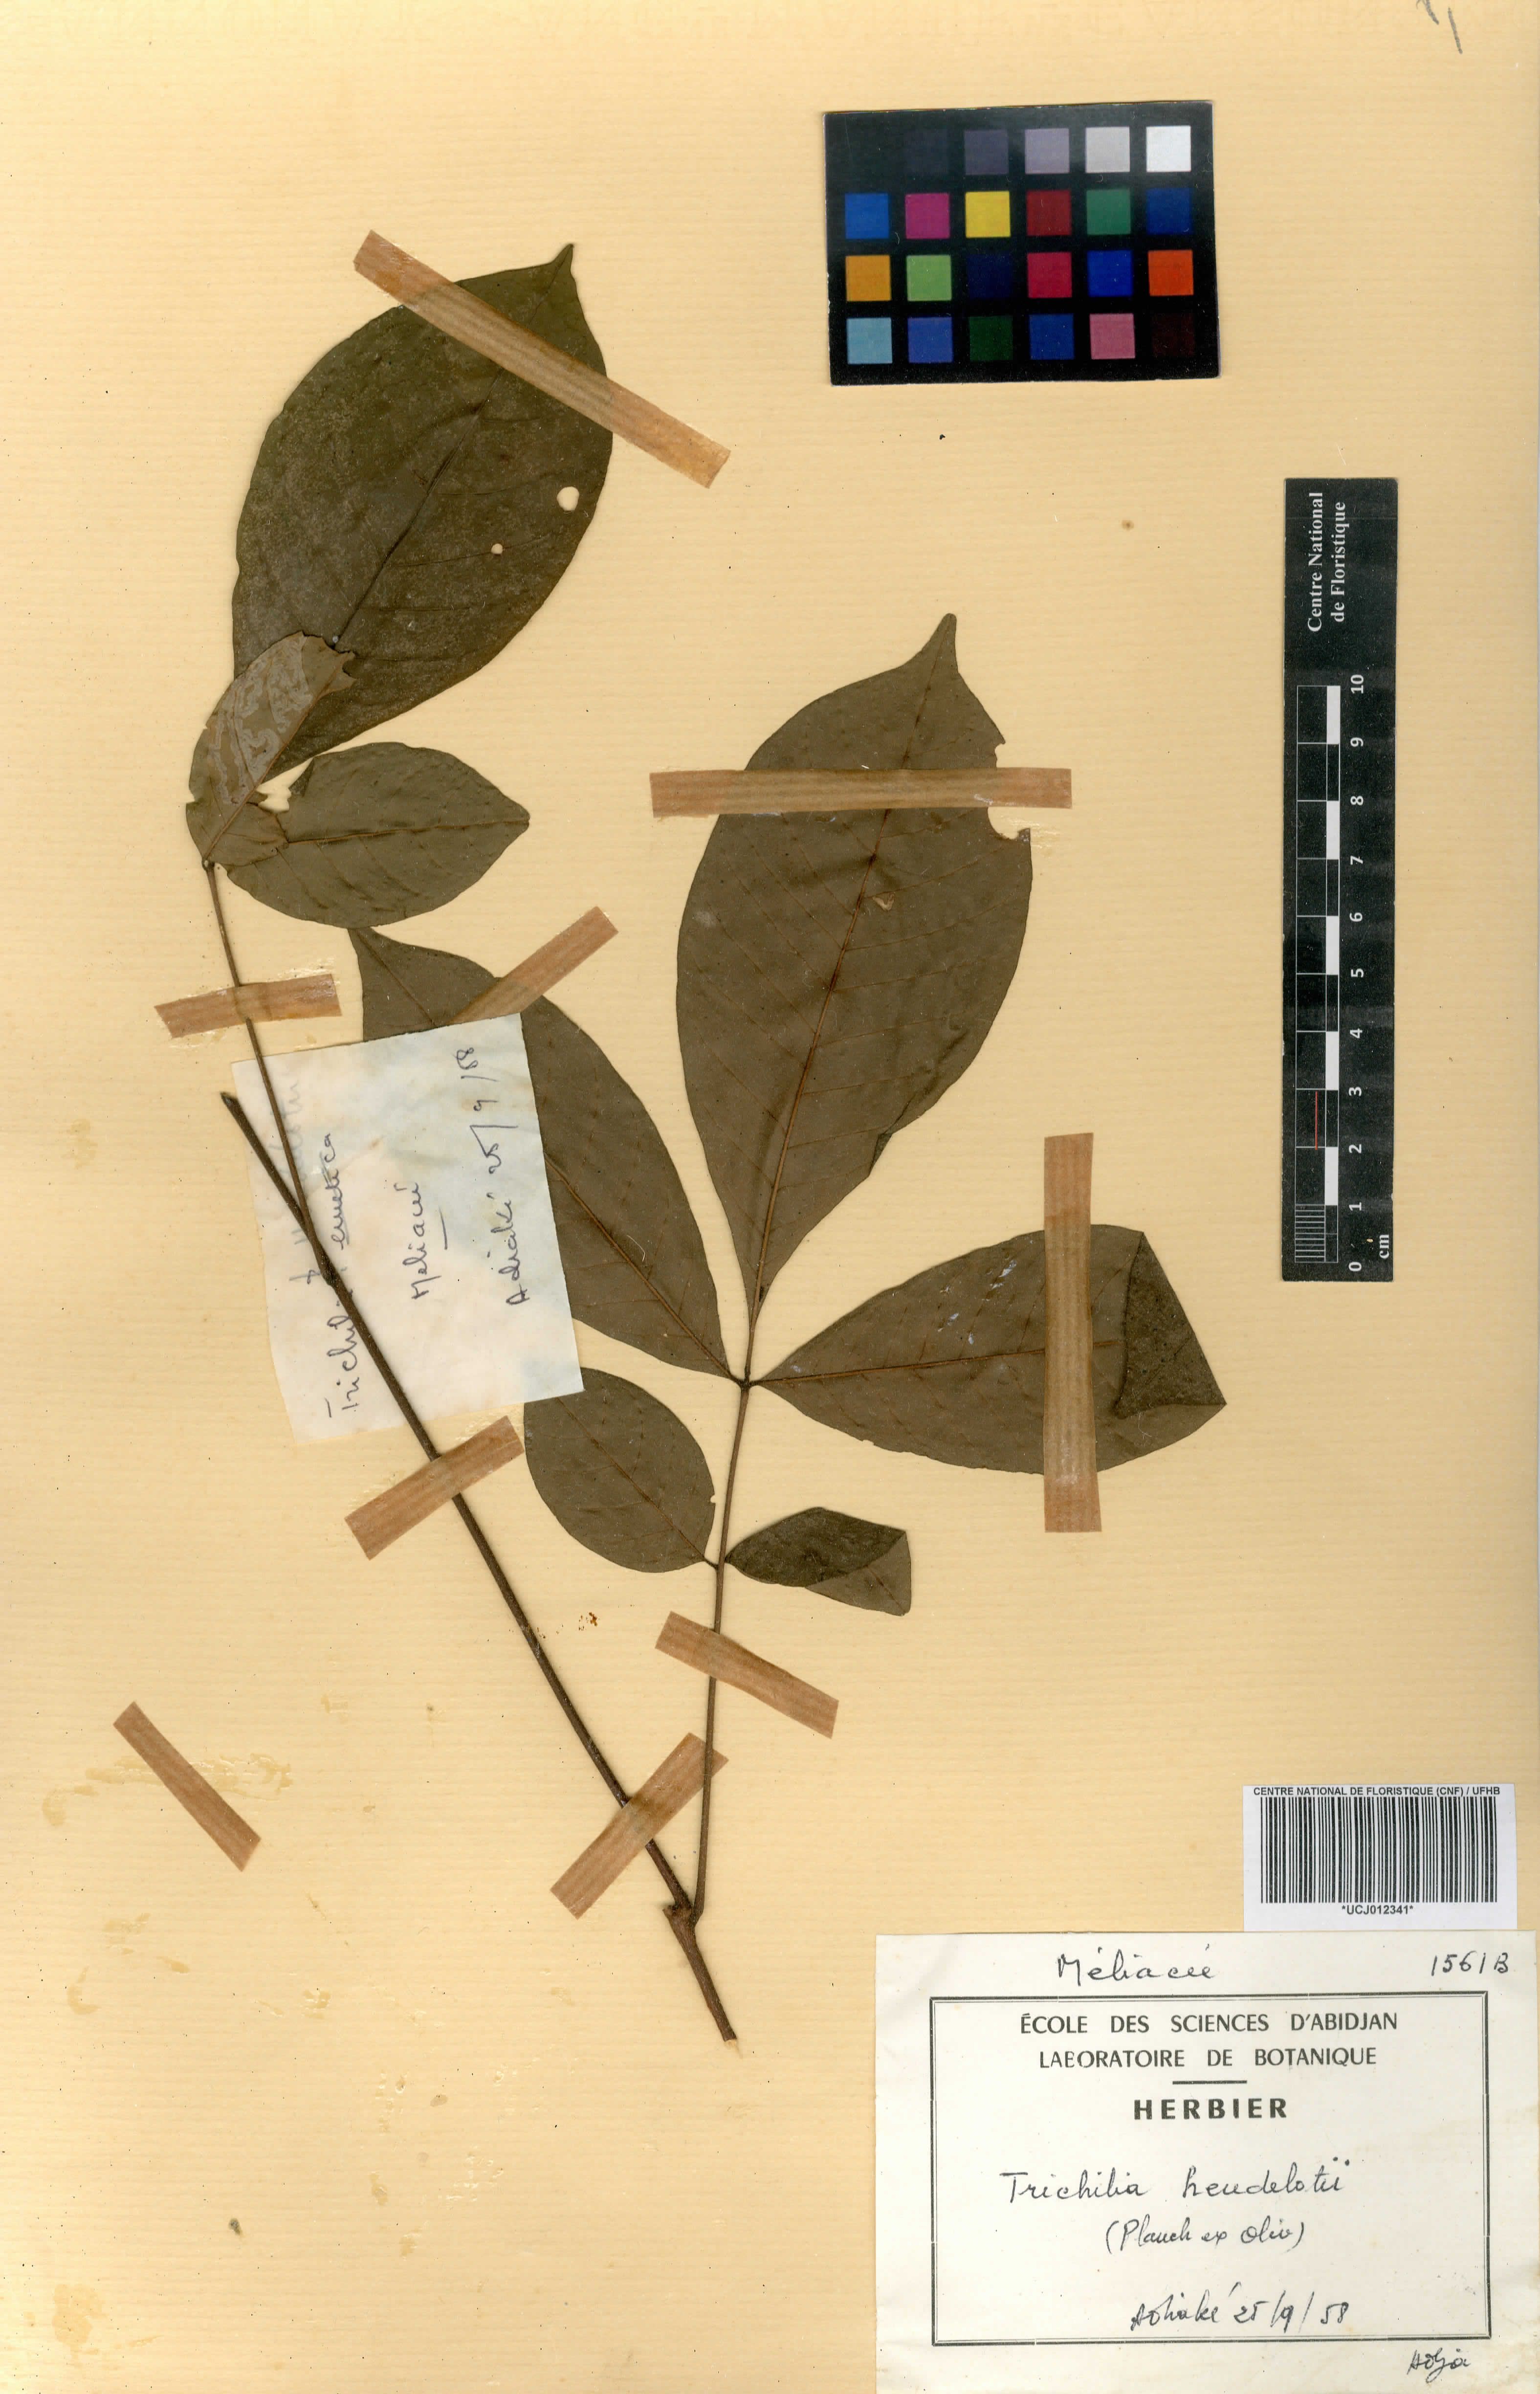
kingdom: Plantae
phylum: Tracheophyta
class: Magnoliopsida
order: Sapindales
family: Meliaceae
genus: Trichilia
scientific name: Trichilia monadelpha
